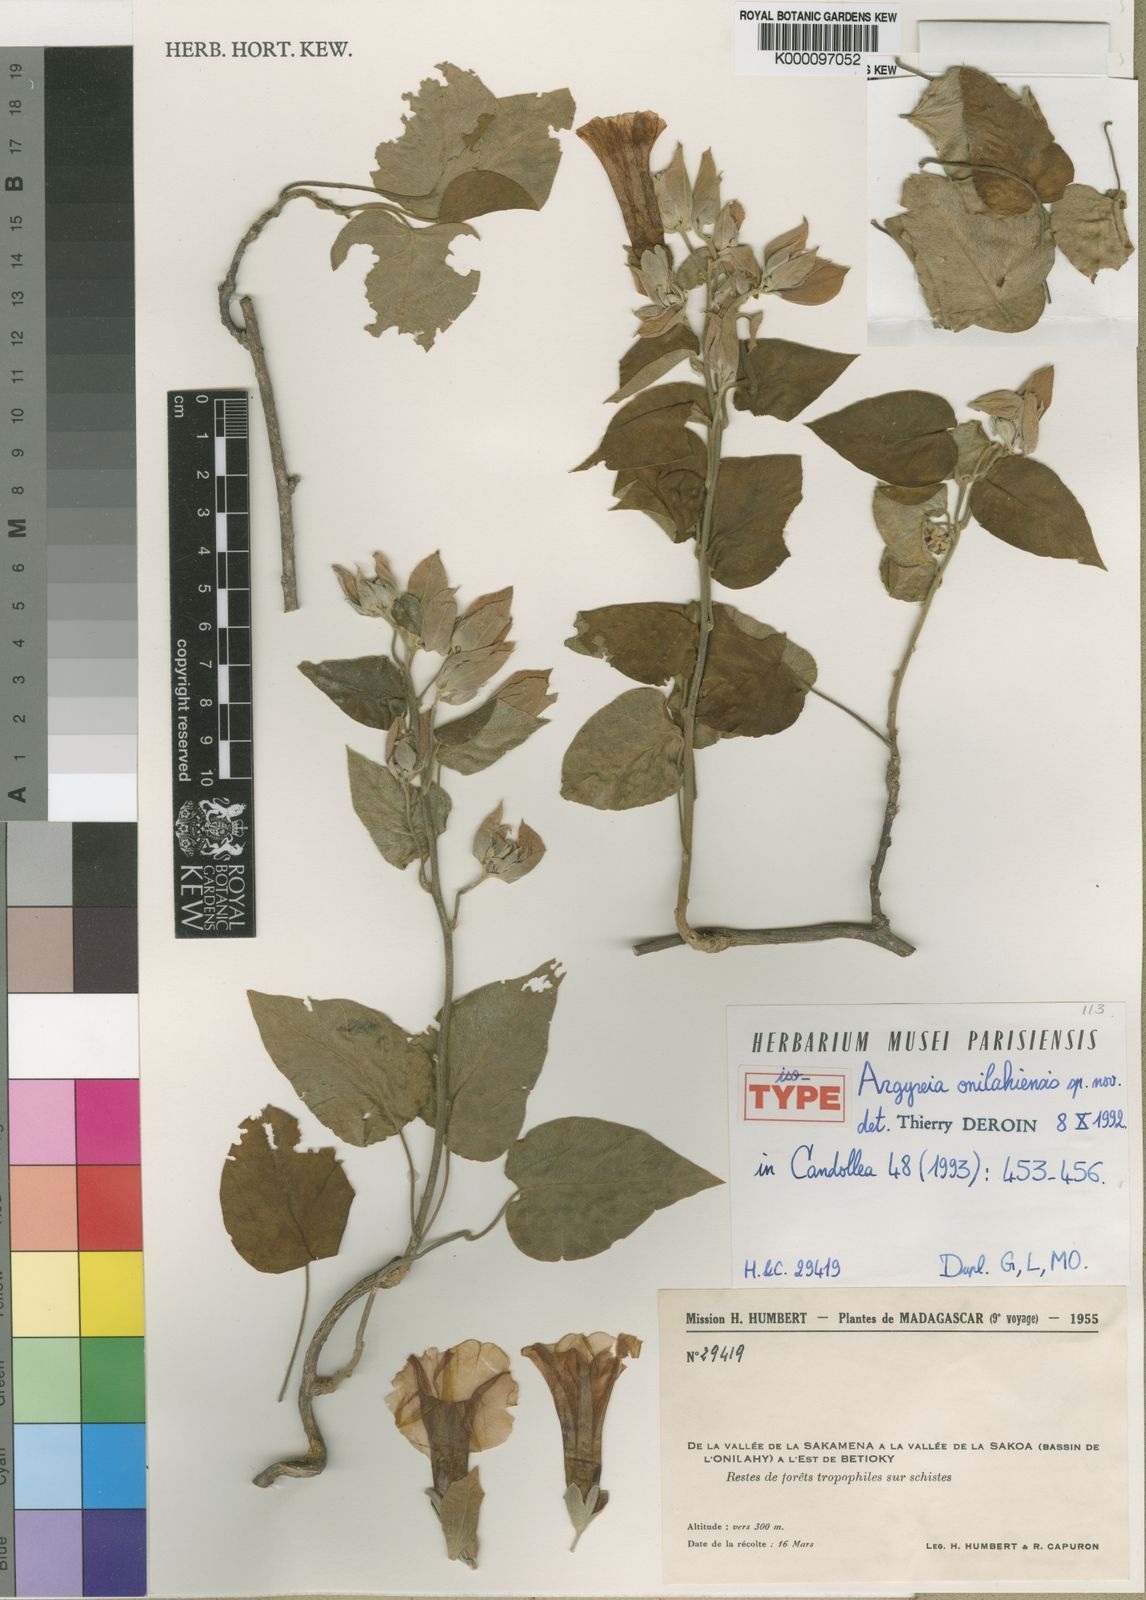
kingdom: Plantae
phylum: Tracheophyta
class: Magnoliopsida
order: Solanales
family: Convolvulaceae
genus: Argyreia
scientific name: Argyreia onilahiensis
